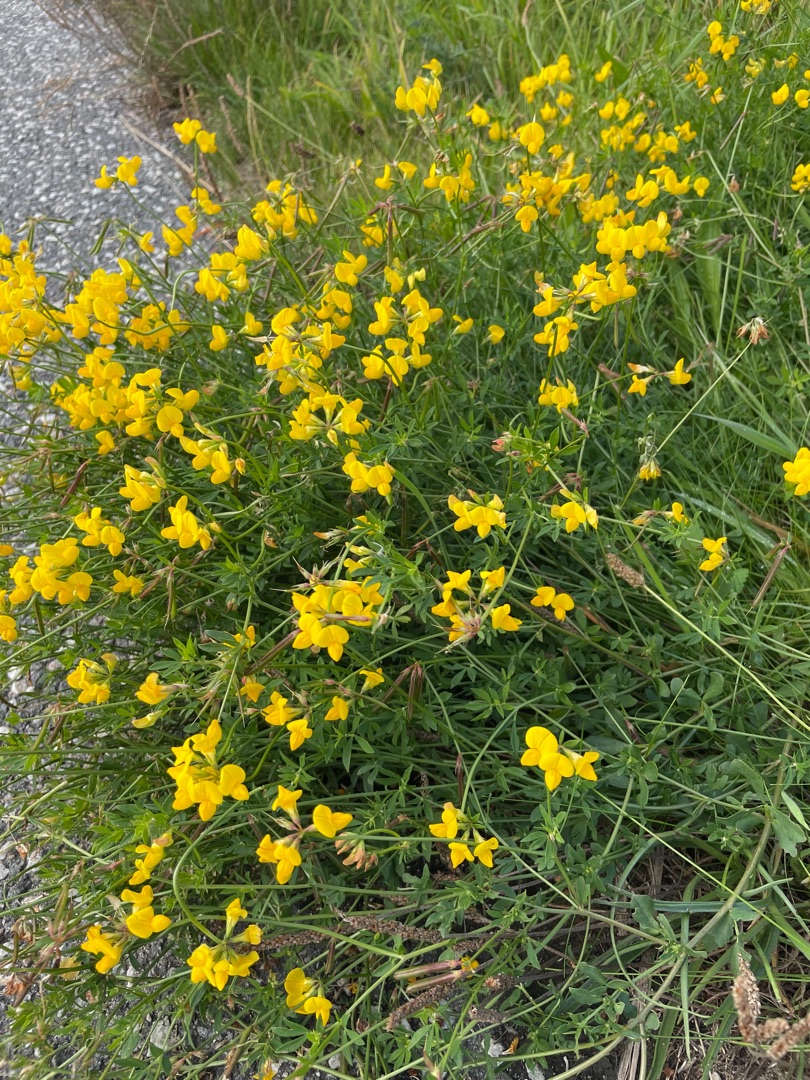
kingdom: Plantae
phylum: Tracheophyta
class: Magnoliopsida
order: Fabales
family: Fabaceae
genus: Lotus
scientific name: Lotus corniculatus
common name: Almindelig kællingetand
